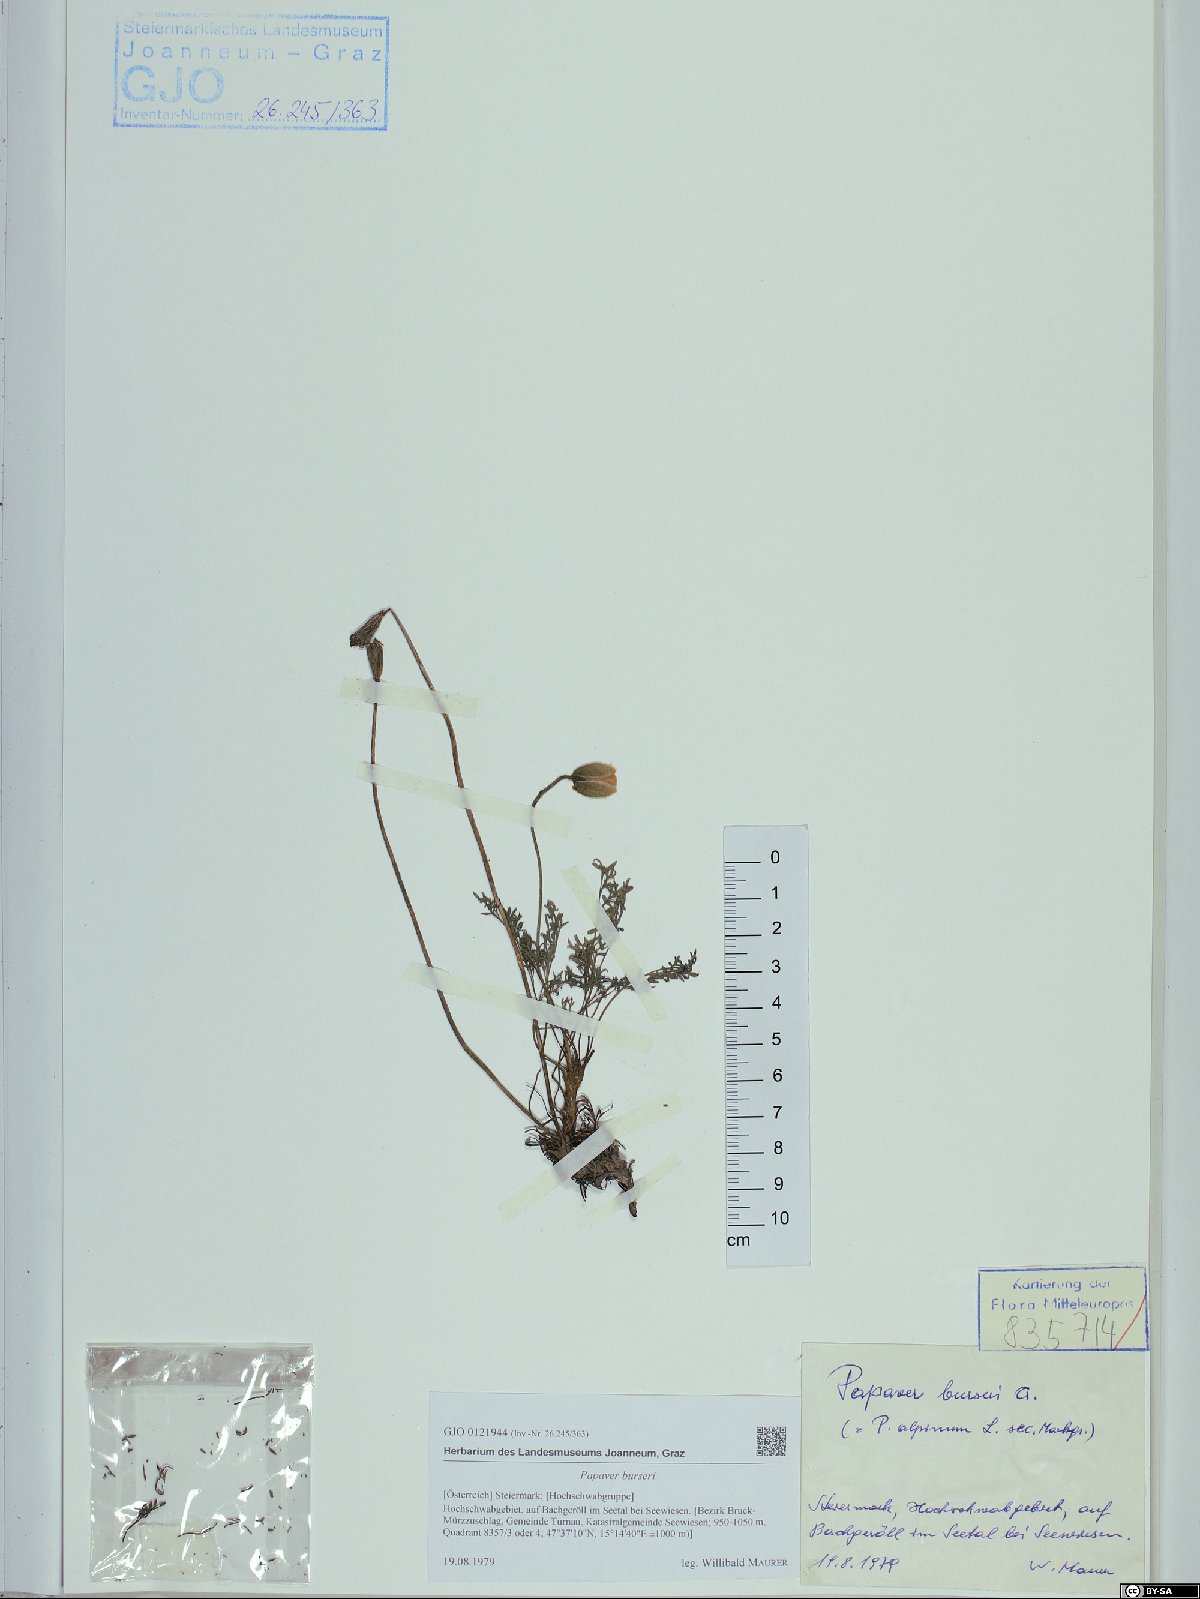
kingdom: Plantae
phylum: Tracheophyta
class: Magnoliopsida
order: Ranunculales
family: Papaveraceae
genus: Papaver
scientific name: Papaver alpinum
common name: Austrian poppy
